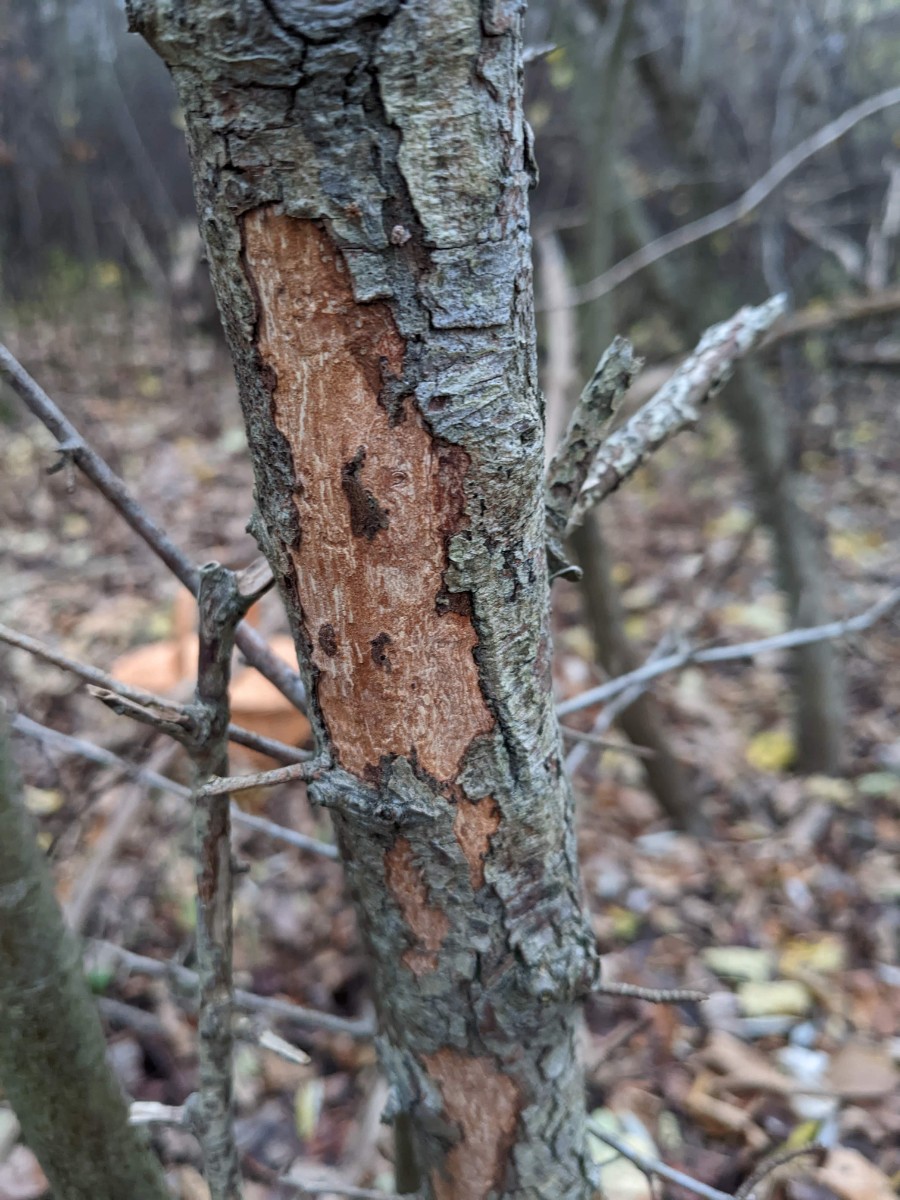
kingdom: Fungi
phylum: Basidiomycota
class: Agaricomycetes
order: Corticiales
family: Vuilleminiaceae
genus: Vuilleminia
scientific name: Vuilleminia cystidiata
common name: tjørne-barksprænger
